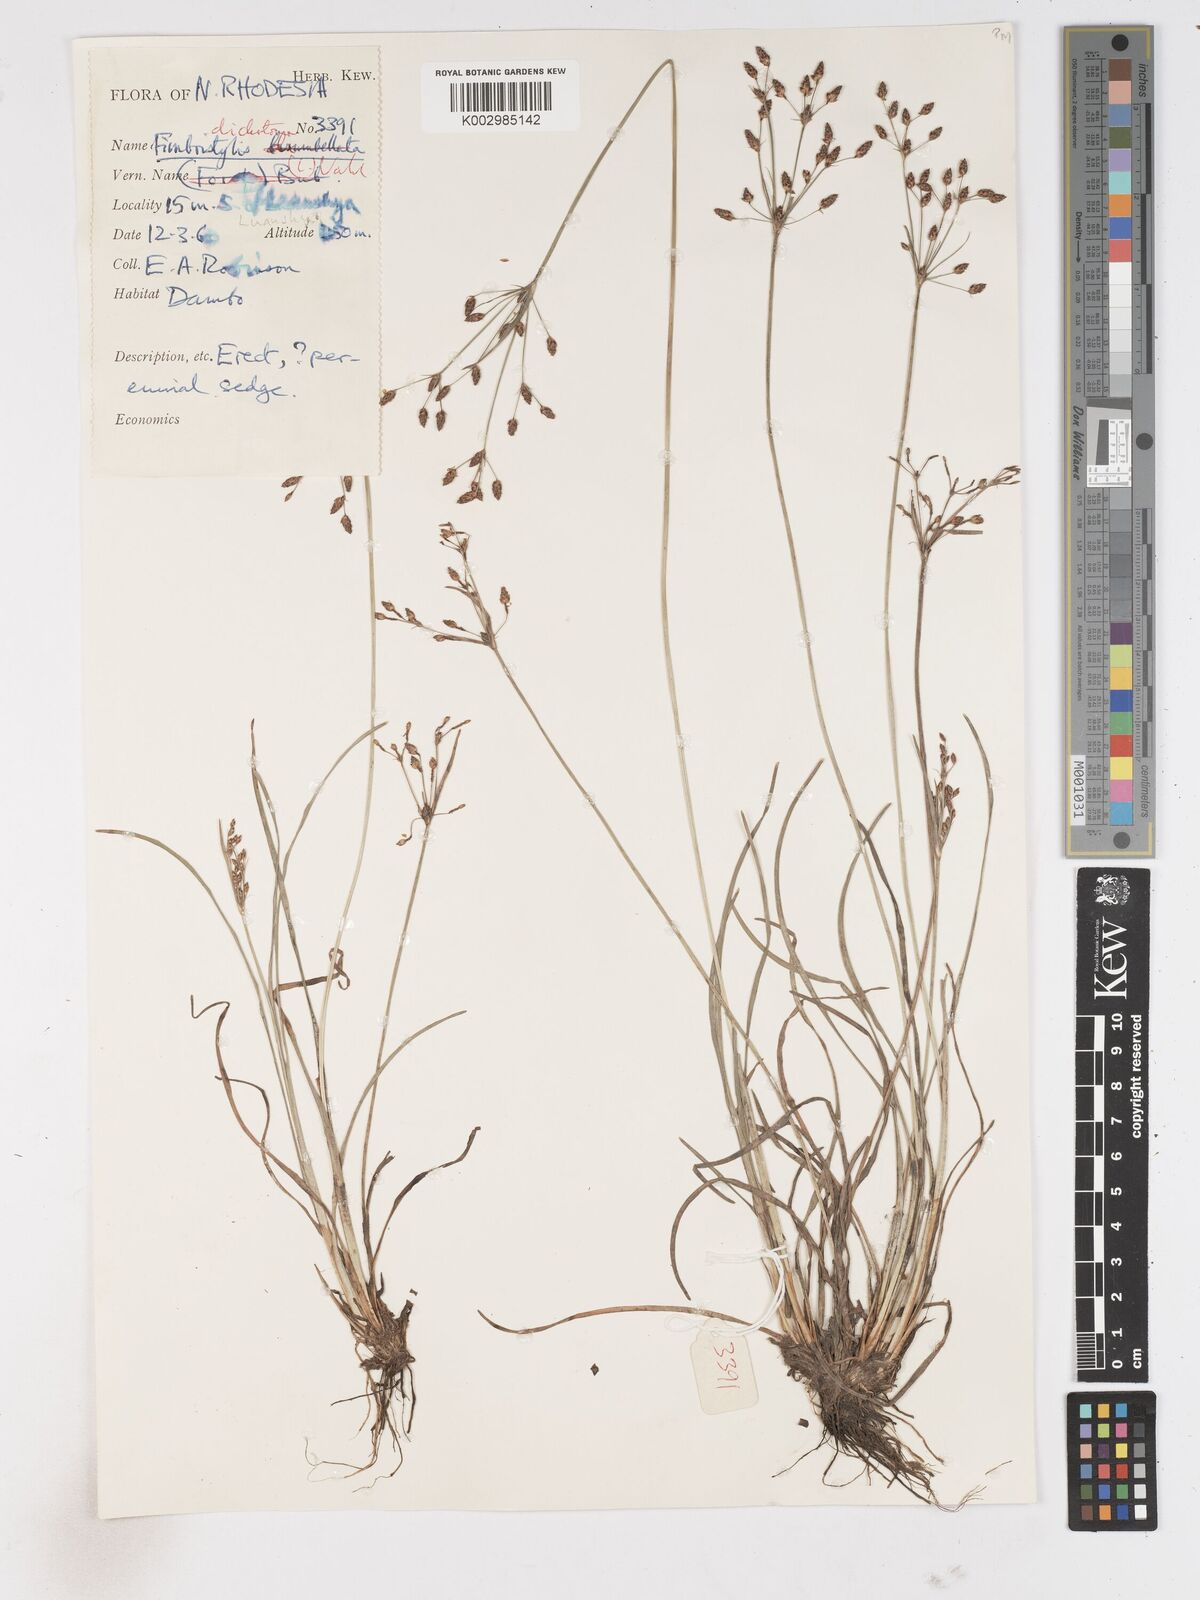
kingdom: Plantae
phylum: Tracheophyta
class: Liliopsida
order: Poales
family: Cyperaceae
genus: Fimbristylis
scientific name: Fimbristylis dichotoma
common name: Forked fimbry
